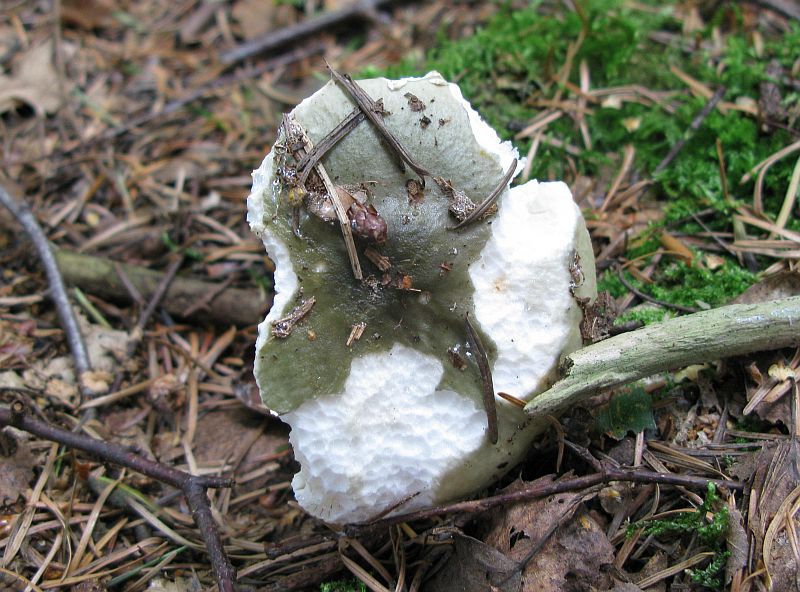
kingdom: Fungi
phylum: Basidiomycota
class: Agaricomycetes
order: Russulales
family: Russulaceae
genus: Russula
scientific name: Russula aeruginea
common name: græsgrøn skørhat
